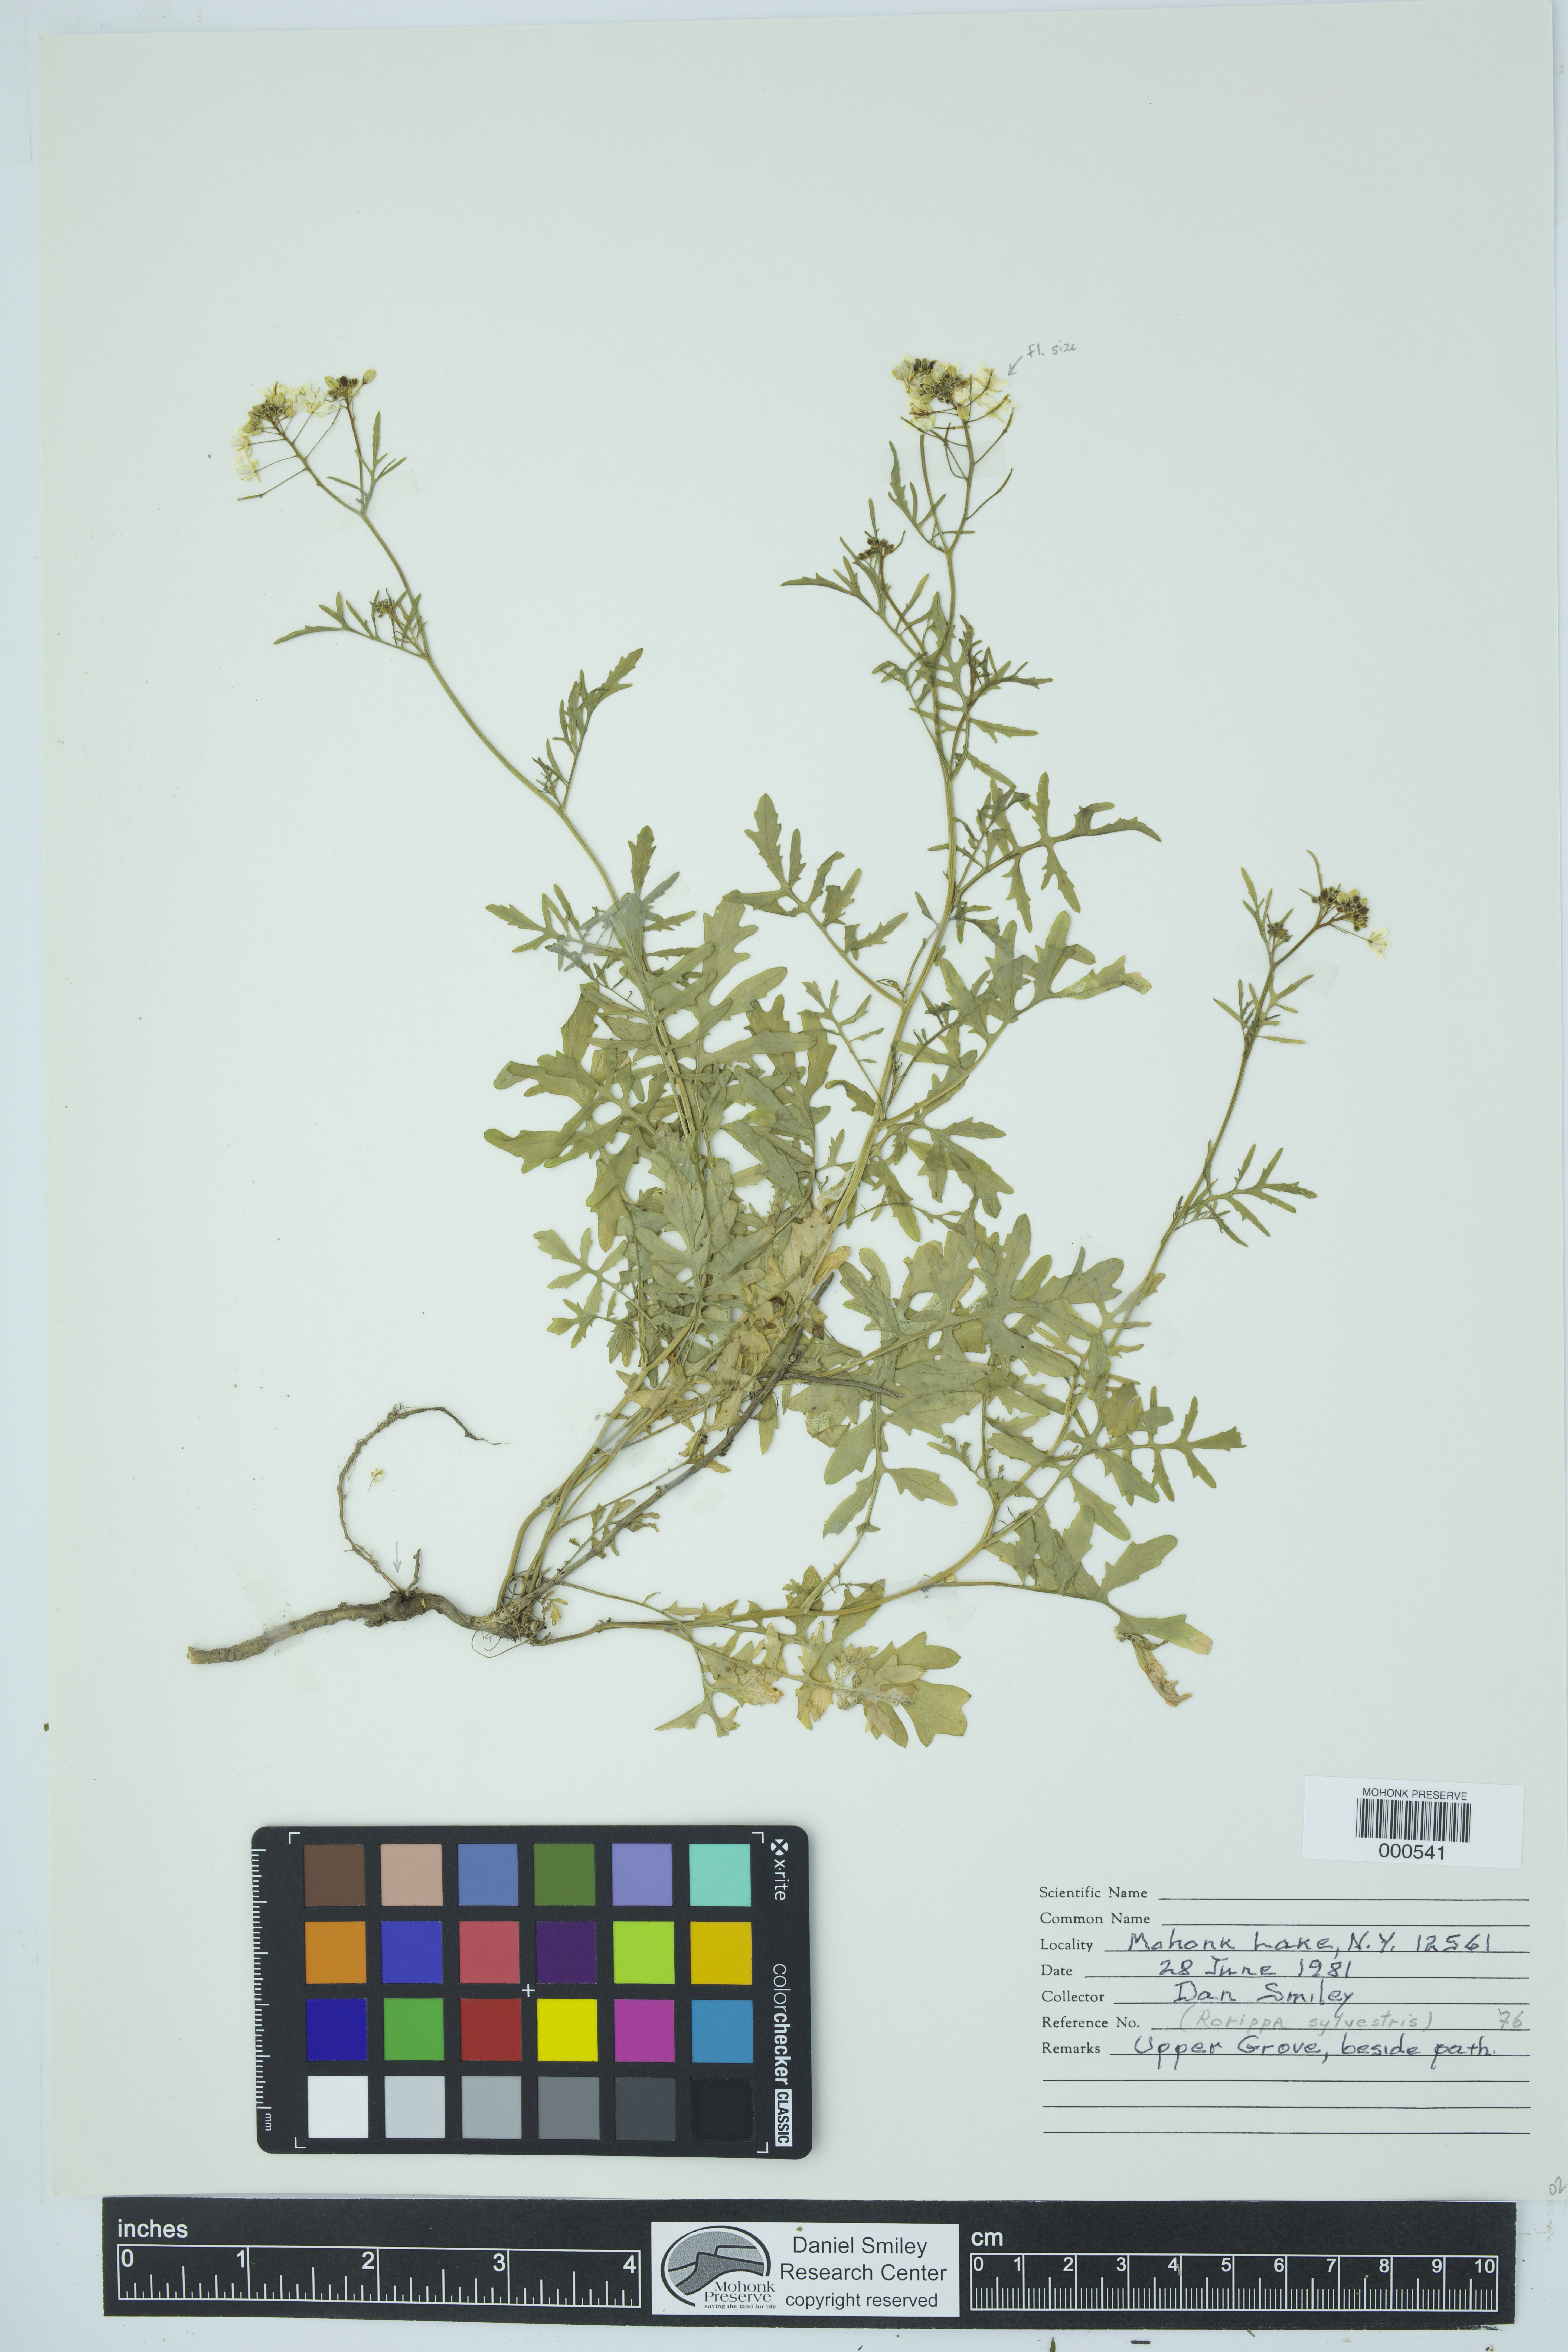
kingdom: Plantae
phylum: Tracheophyta
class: Magnoliopsida
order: Brassicales
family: Brassicaceae
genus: Rorippa
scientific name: Rorippa sylvestris
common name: Creeping yellowcress
